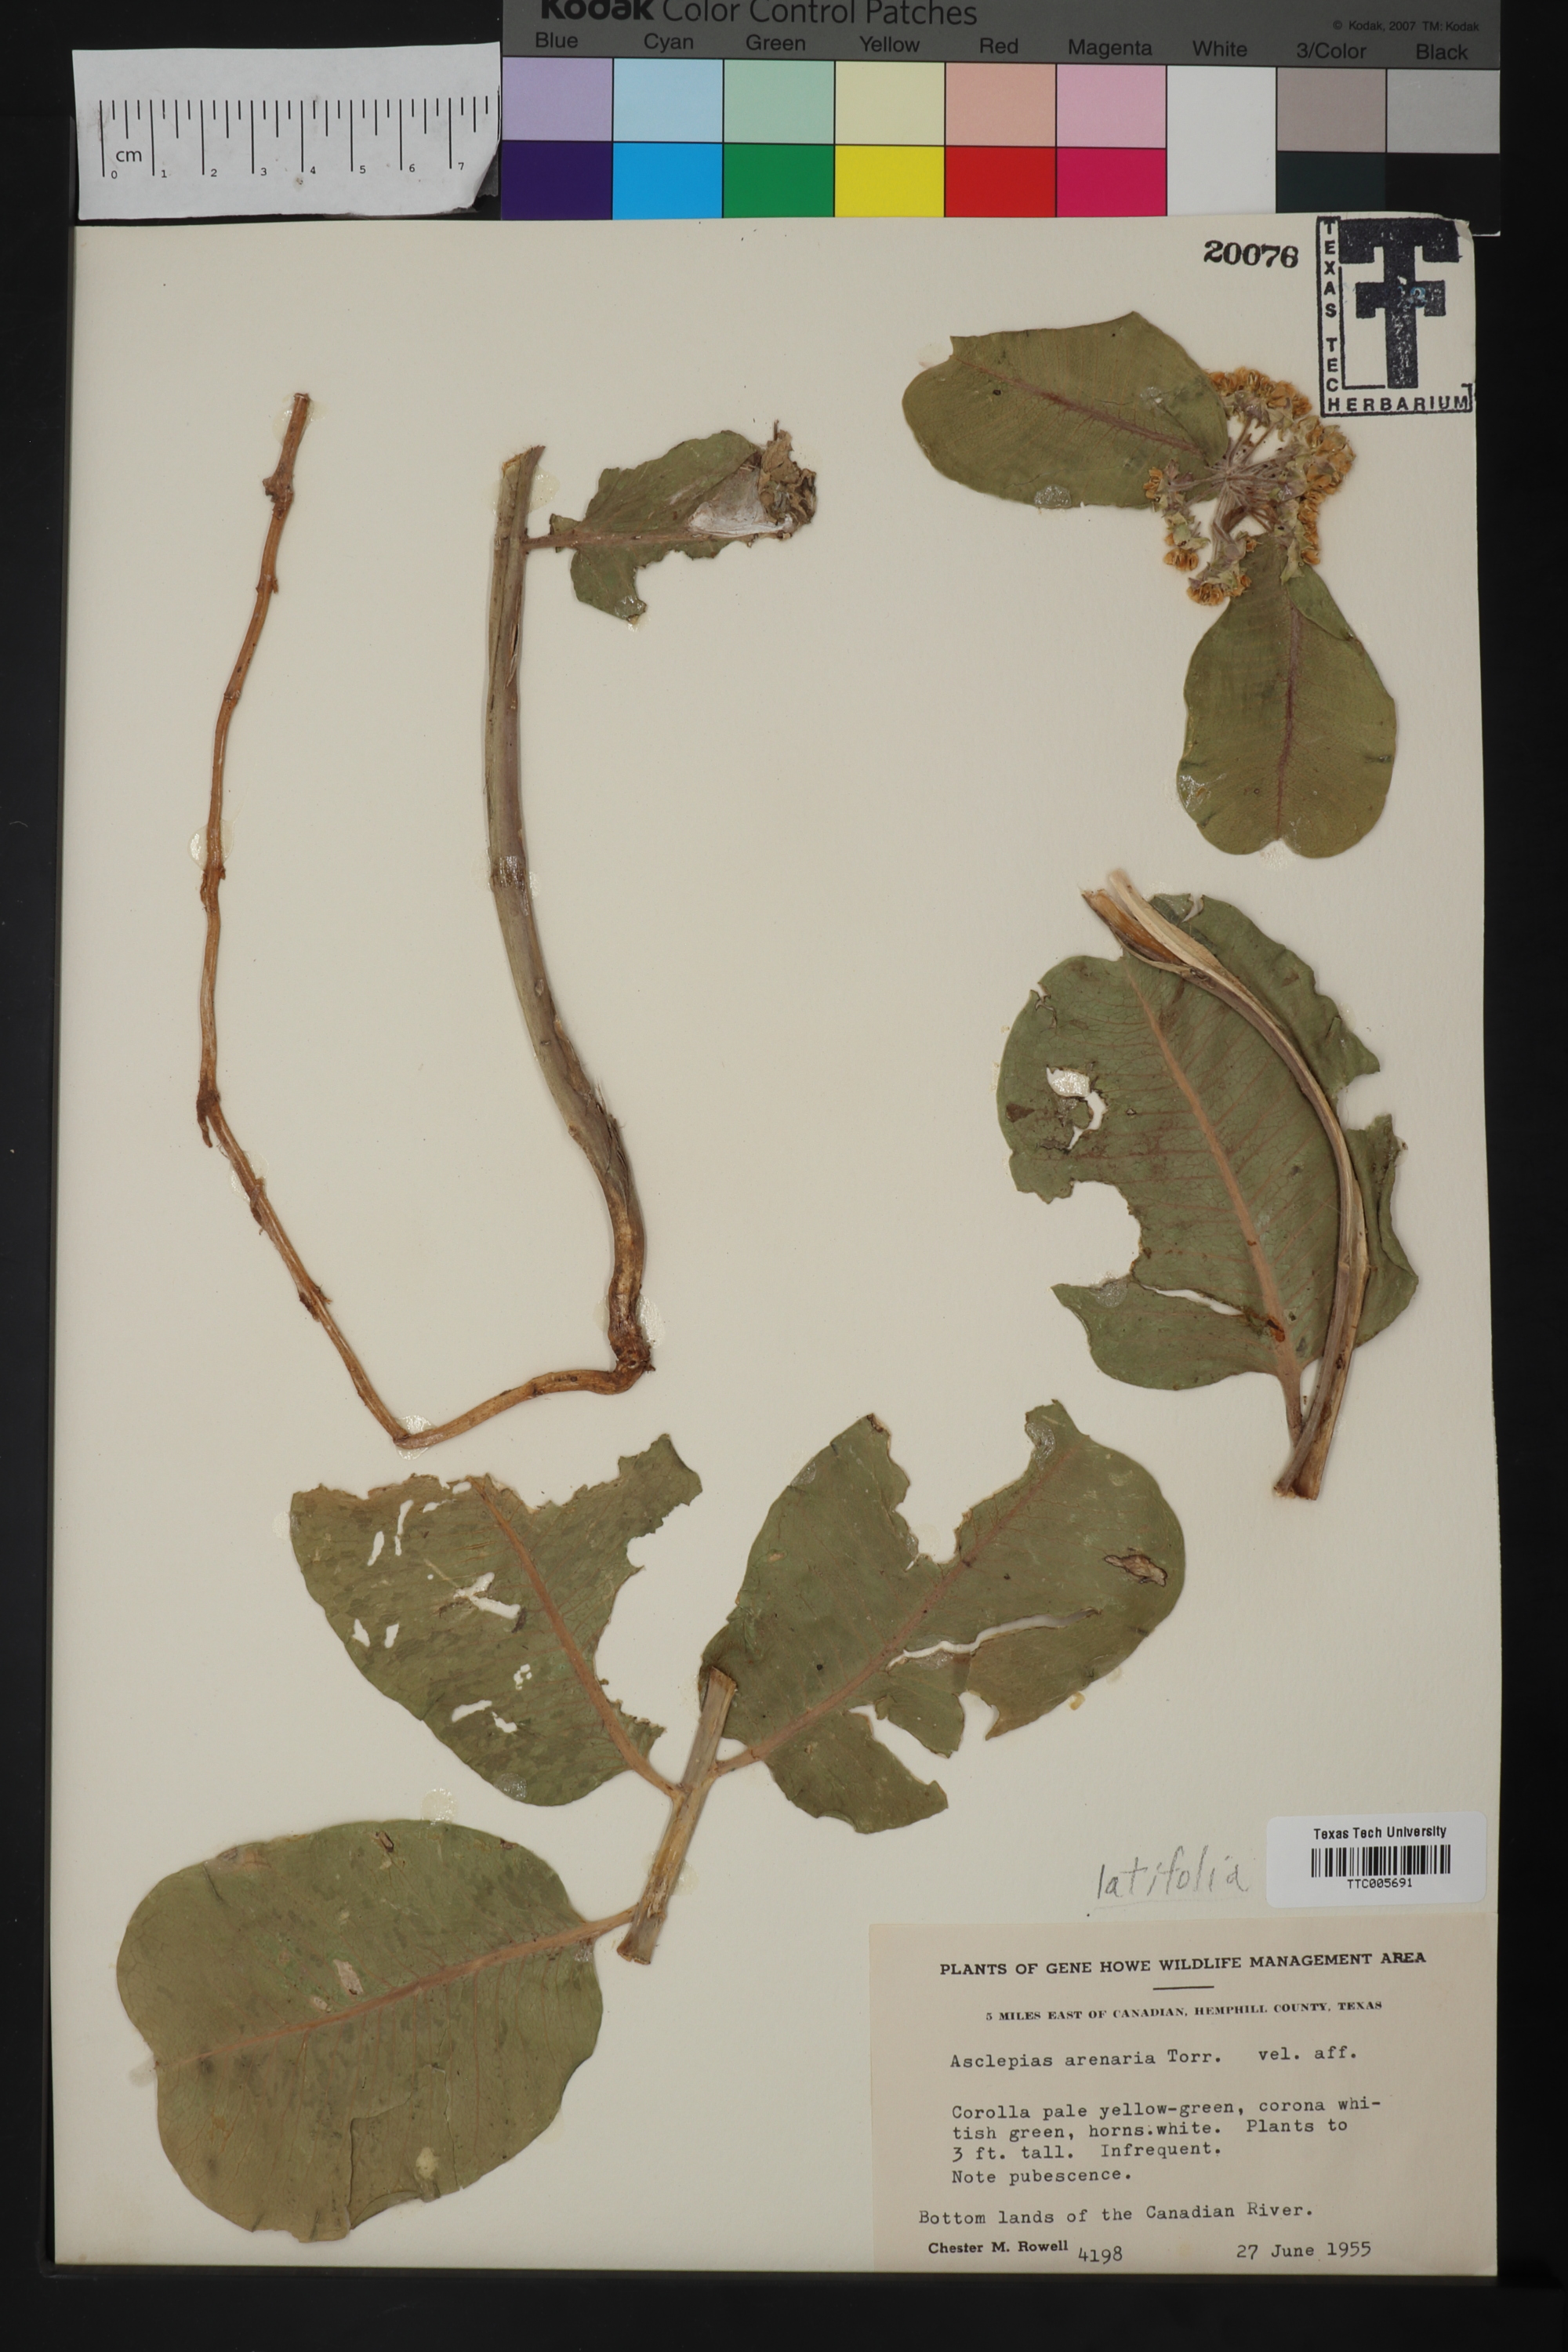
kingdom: Plantae
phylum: Tracheophyta
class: Magnoliopsida
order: Gentianales
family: Apocynaceae
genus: Asclepias
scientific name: Asclepias latifolia
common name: Broadleaf milkweed
